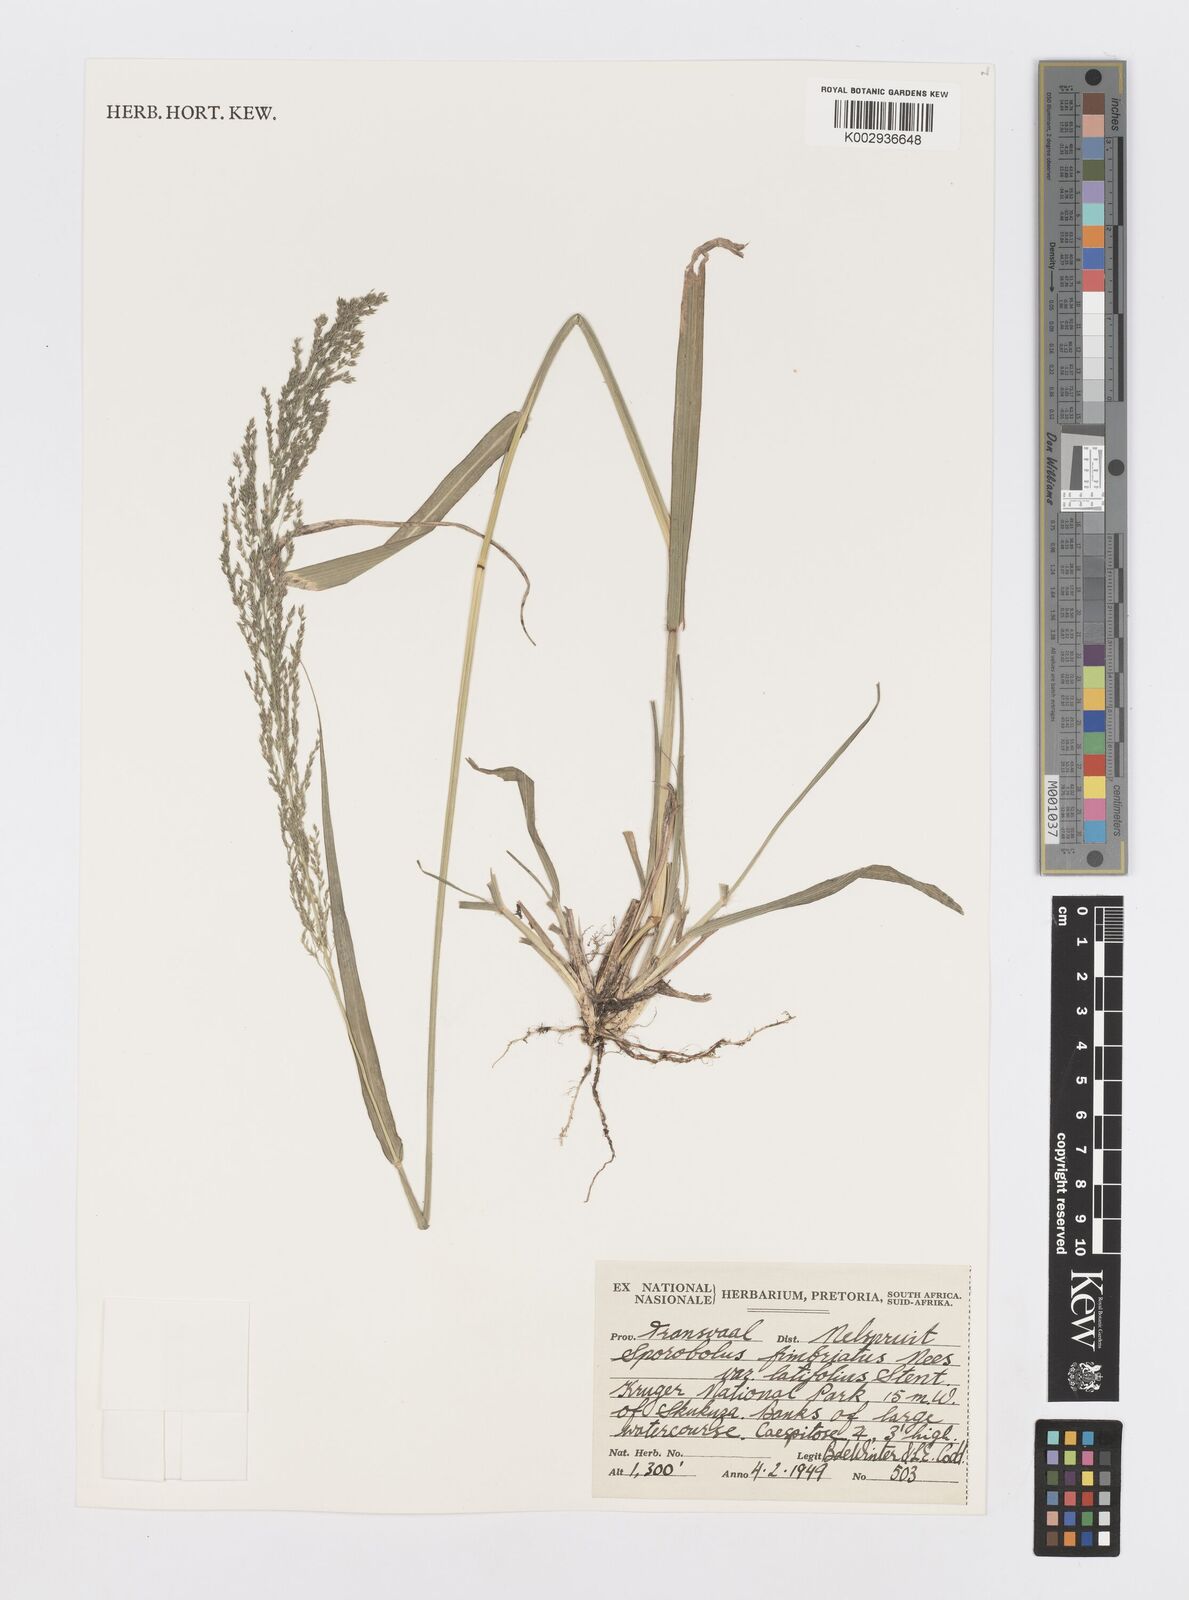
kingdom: Plantae
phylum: Tracheophyta
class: Liliopsida
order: Poales
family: Poaceae
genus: Sporobolus
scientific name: Sporobolus fimbriatus
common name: Fringed dropseed
